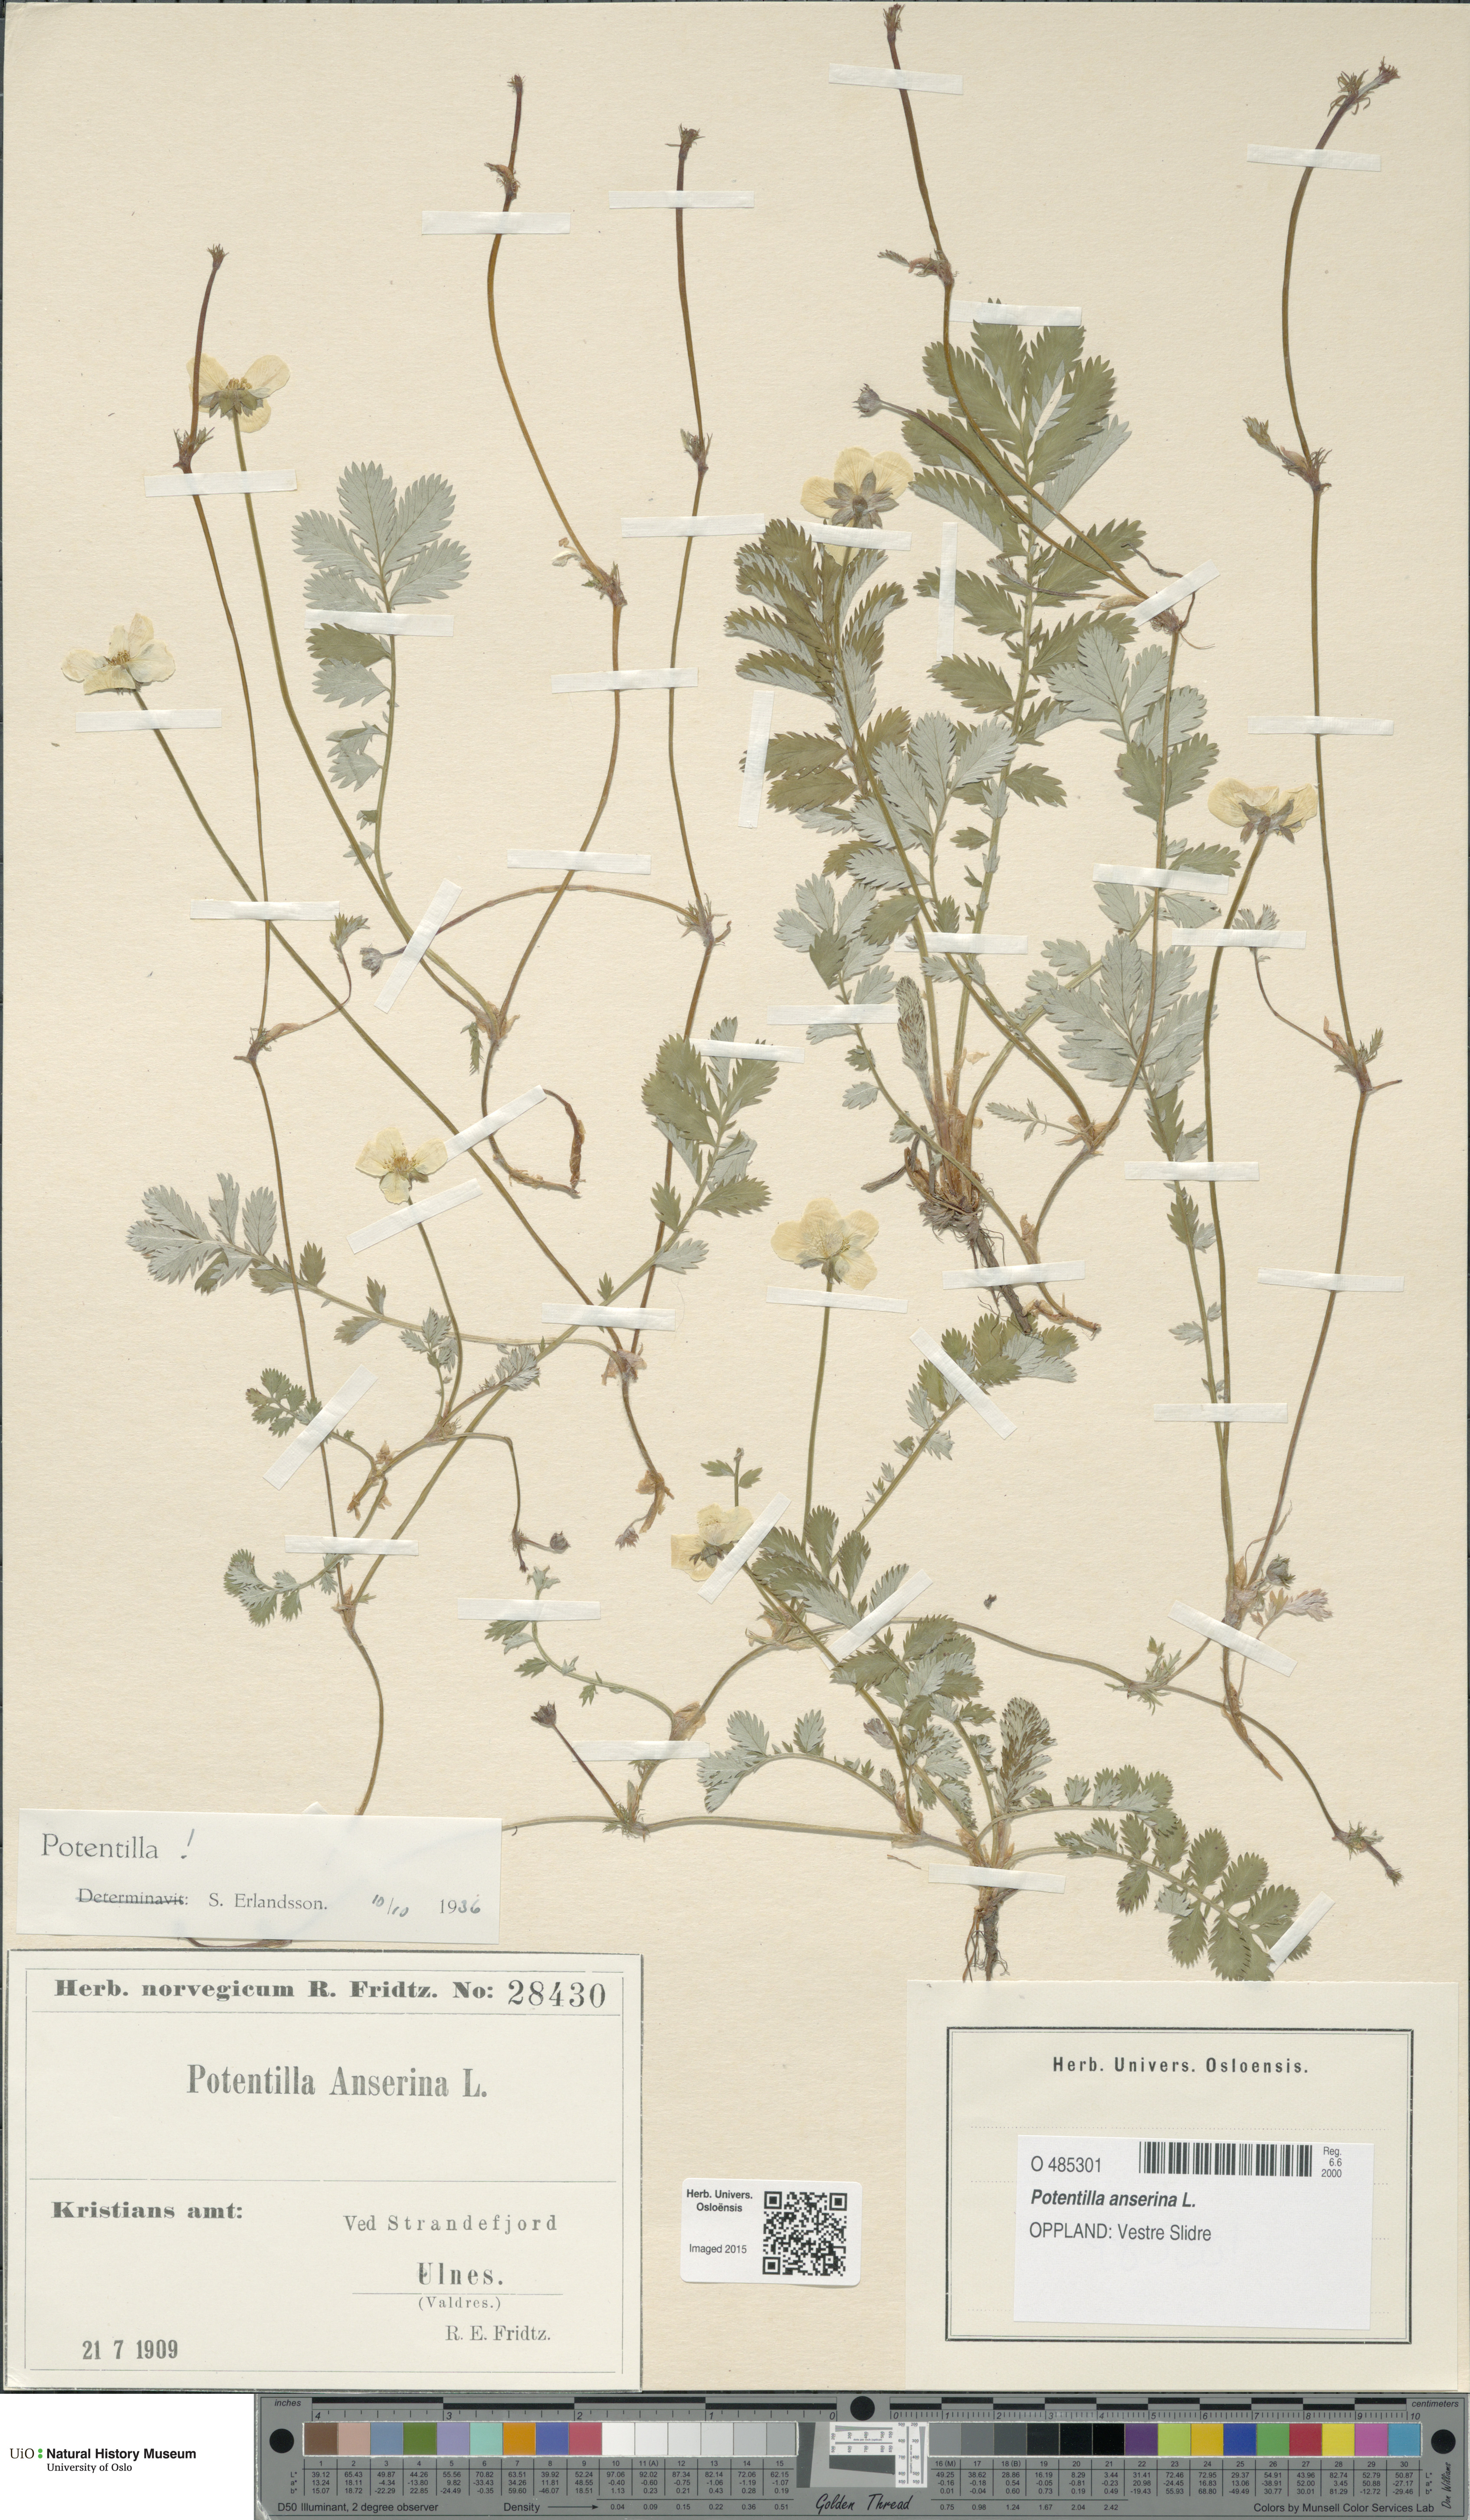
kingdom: Plantae
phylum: Tracheophyta
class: Magnoliopsida
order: Rosales
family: Rosaceae
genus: Argentina
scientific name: Argentina anserina
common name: Common silverweed
